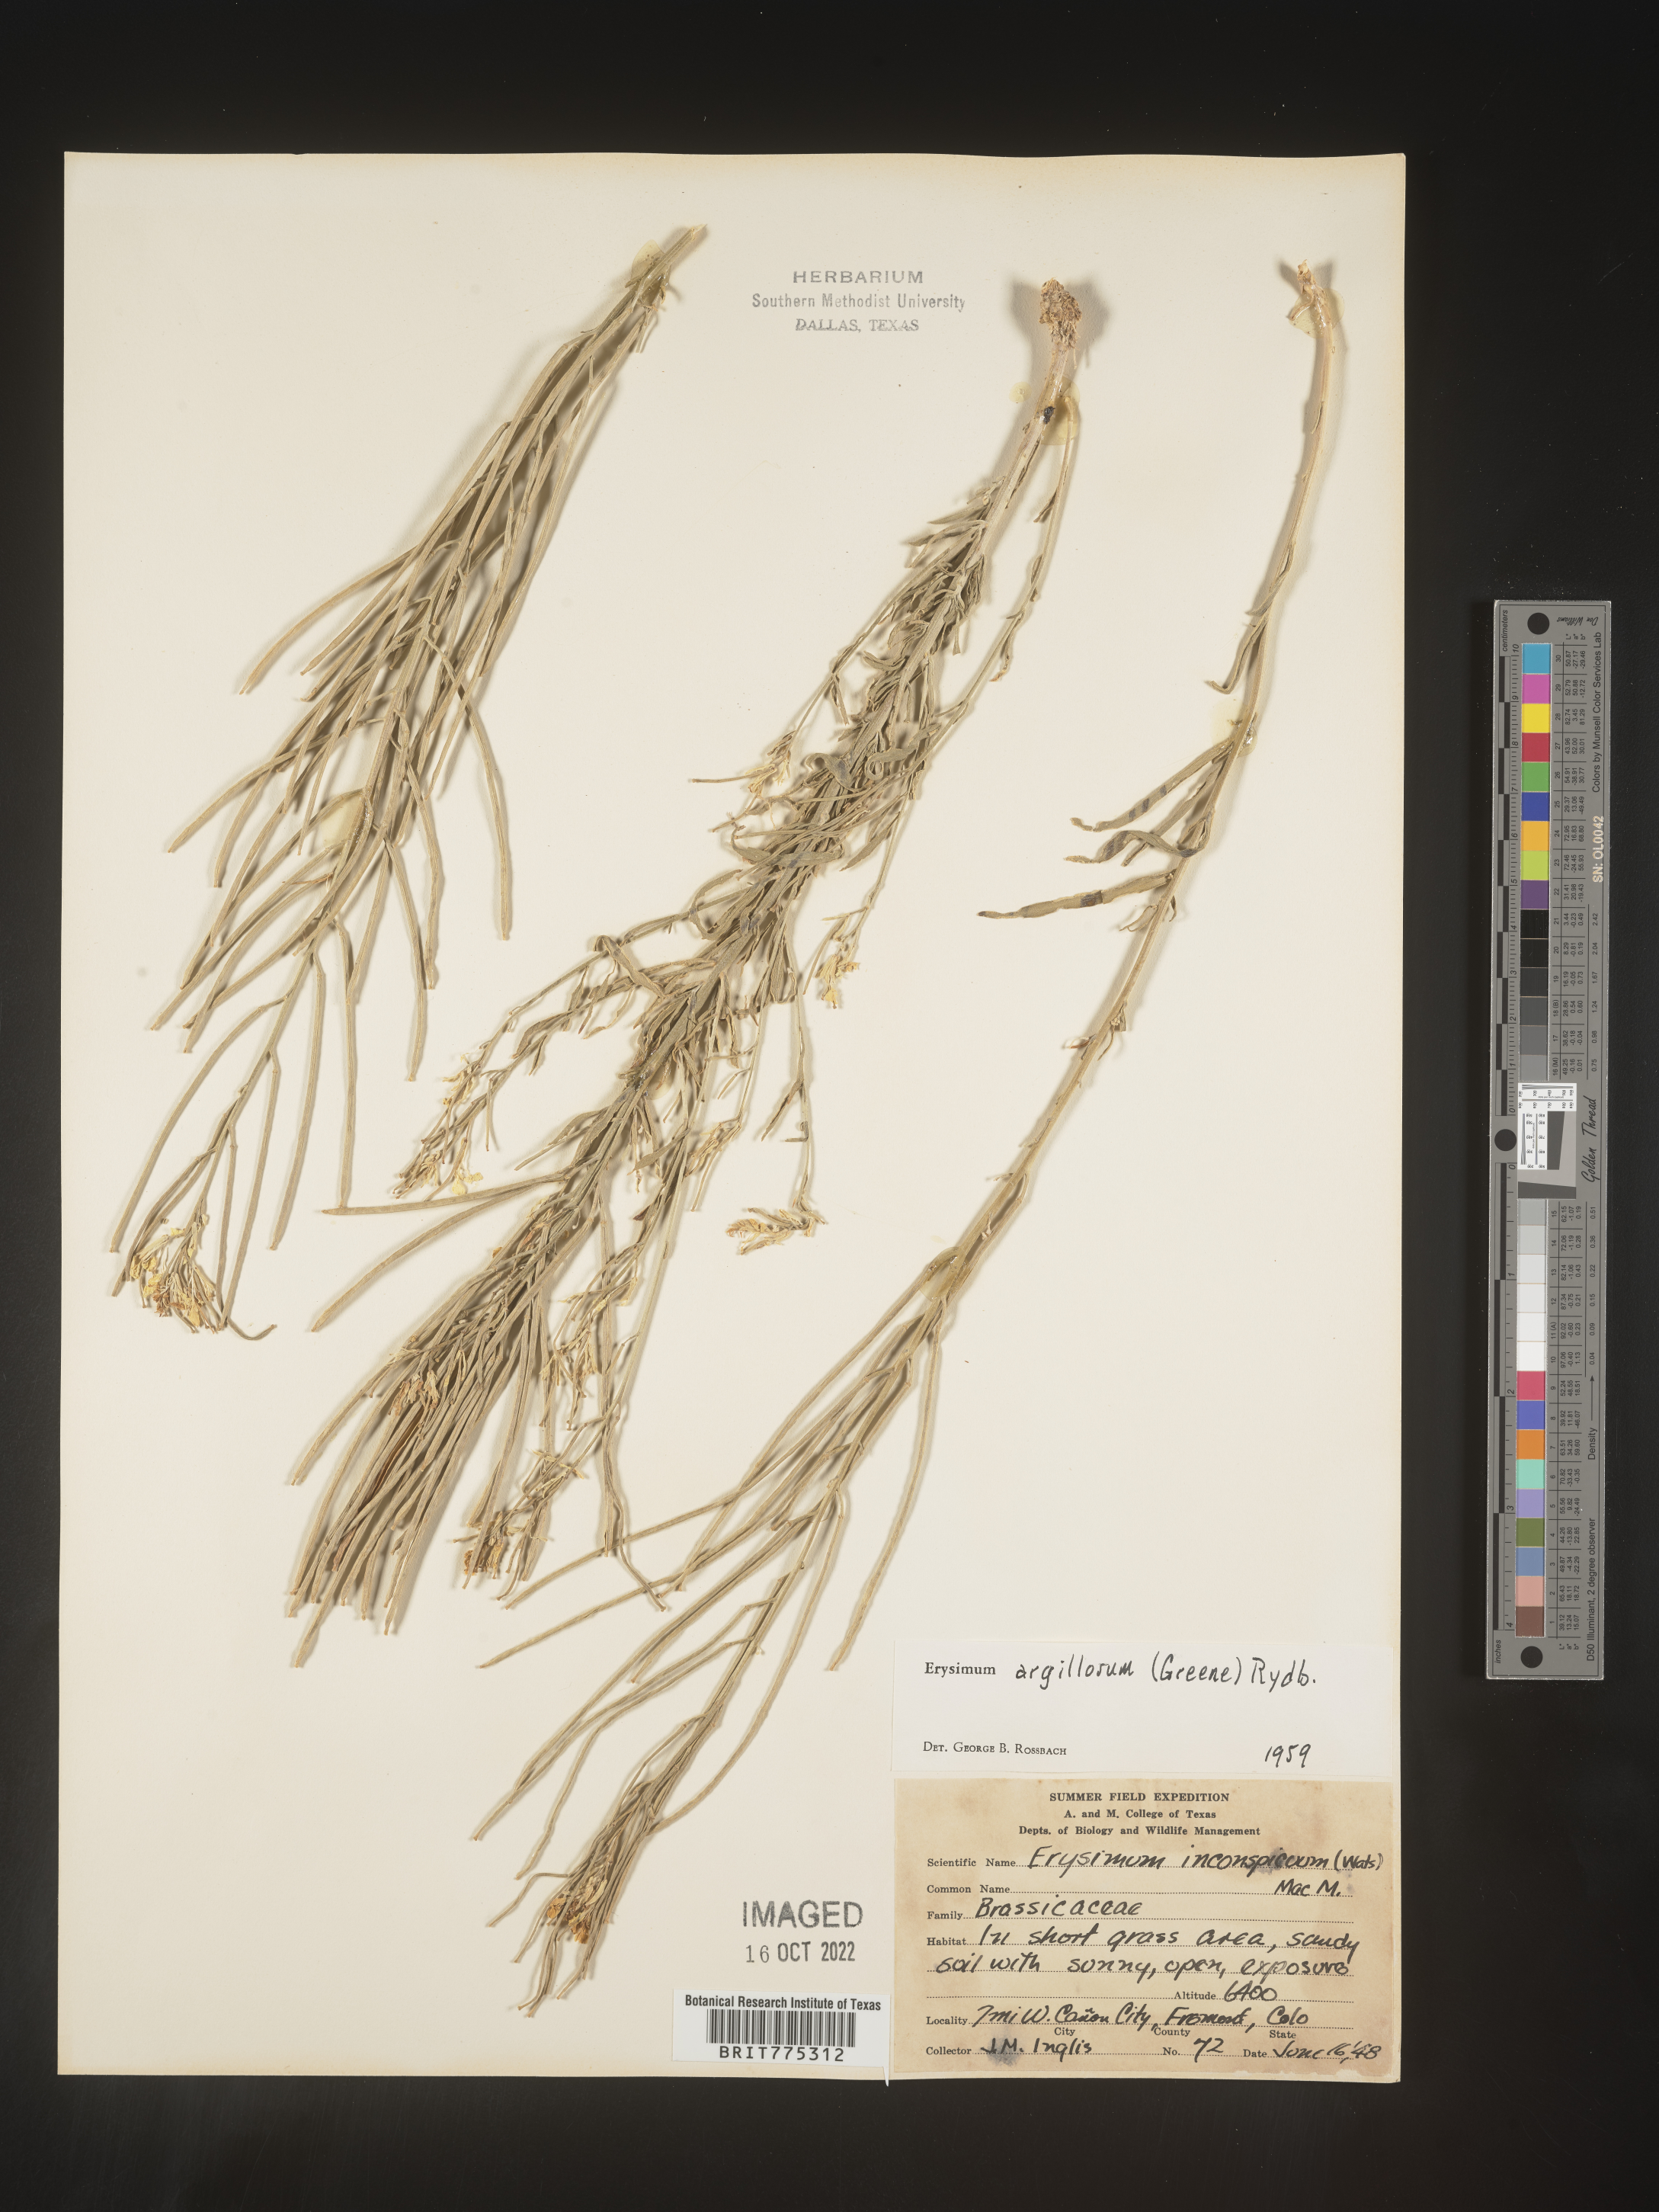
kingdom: Plantae
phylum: Tracheophyta
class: Magnoliopsida
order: Brassicales
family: Brassicaceae
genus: Erysimum
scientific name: Erysimum capitatum
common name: Western wallflower
